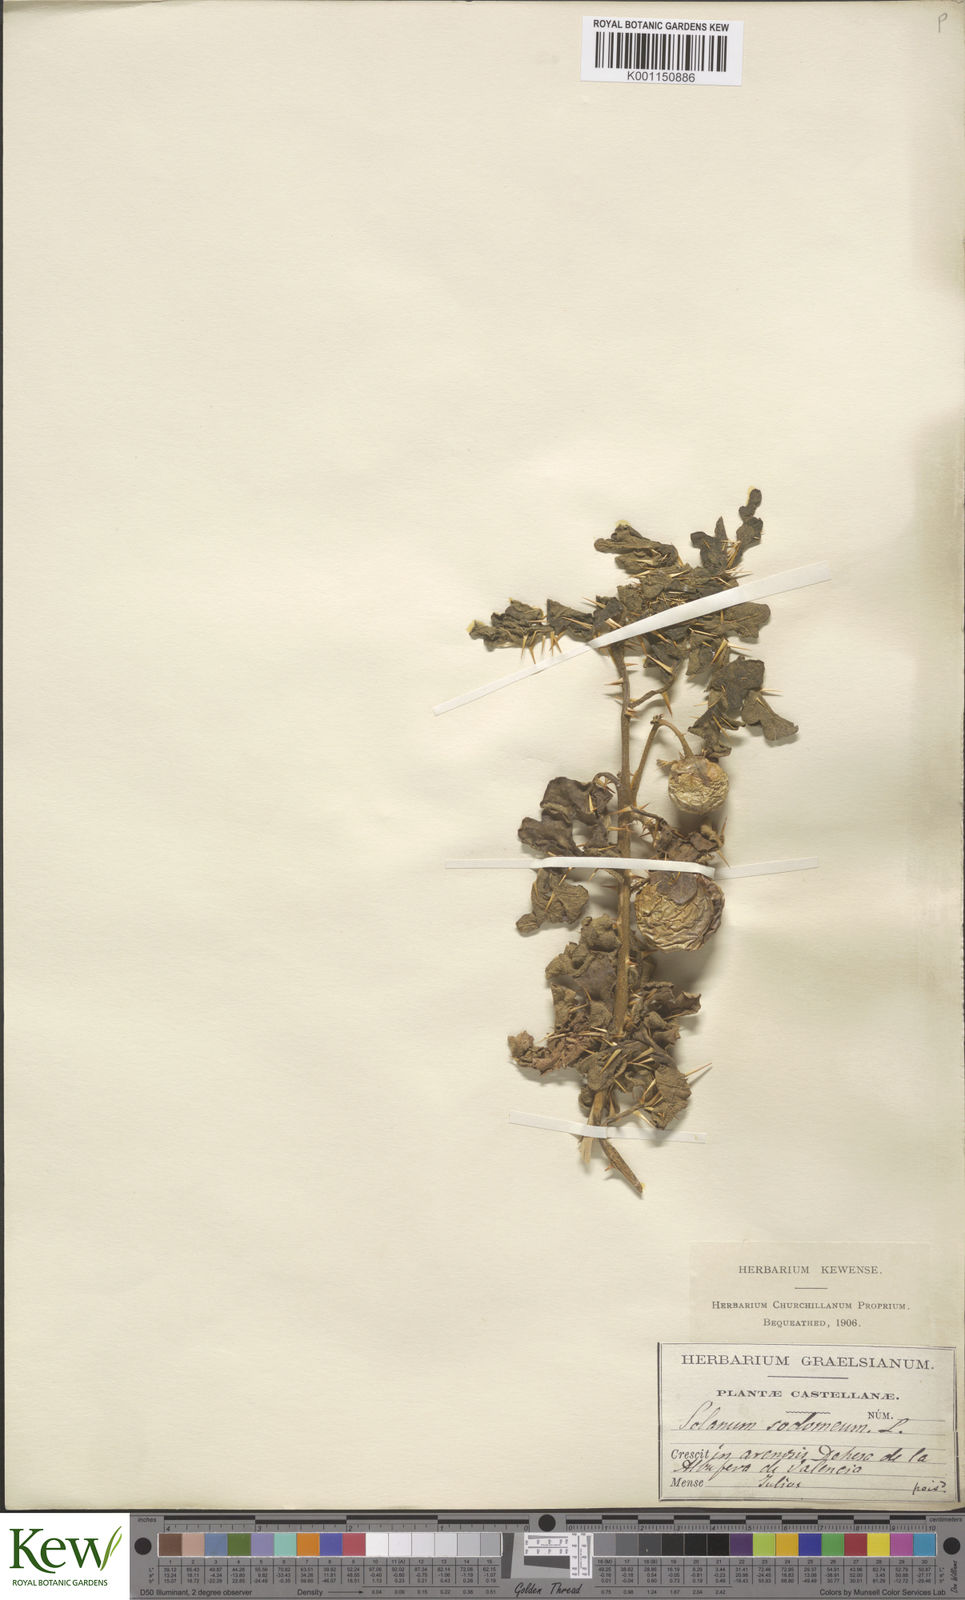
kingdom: Plantae
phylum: Tracheophyta
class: Magnoliopsida
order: Solanales
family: Solanaceae
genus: Solanum
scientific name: Solanum anguivi
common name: Forest bitterberry
